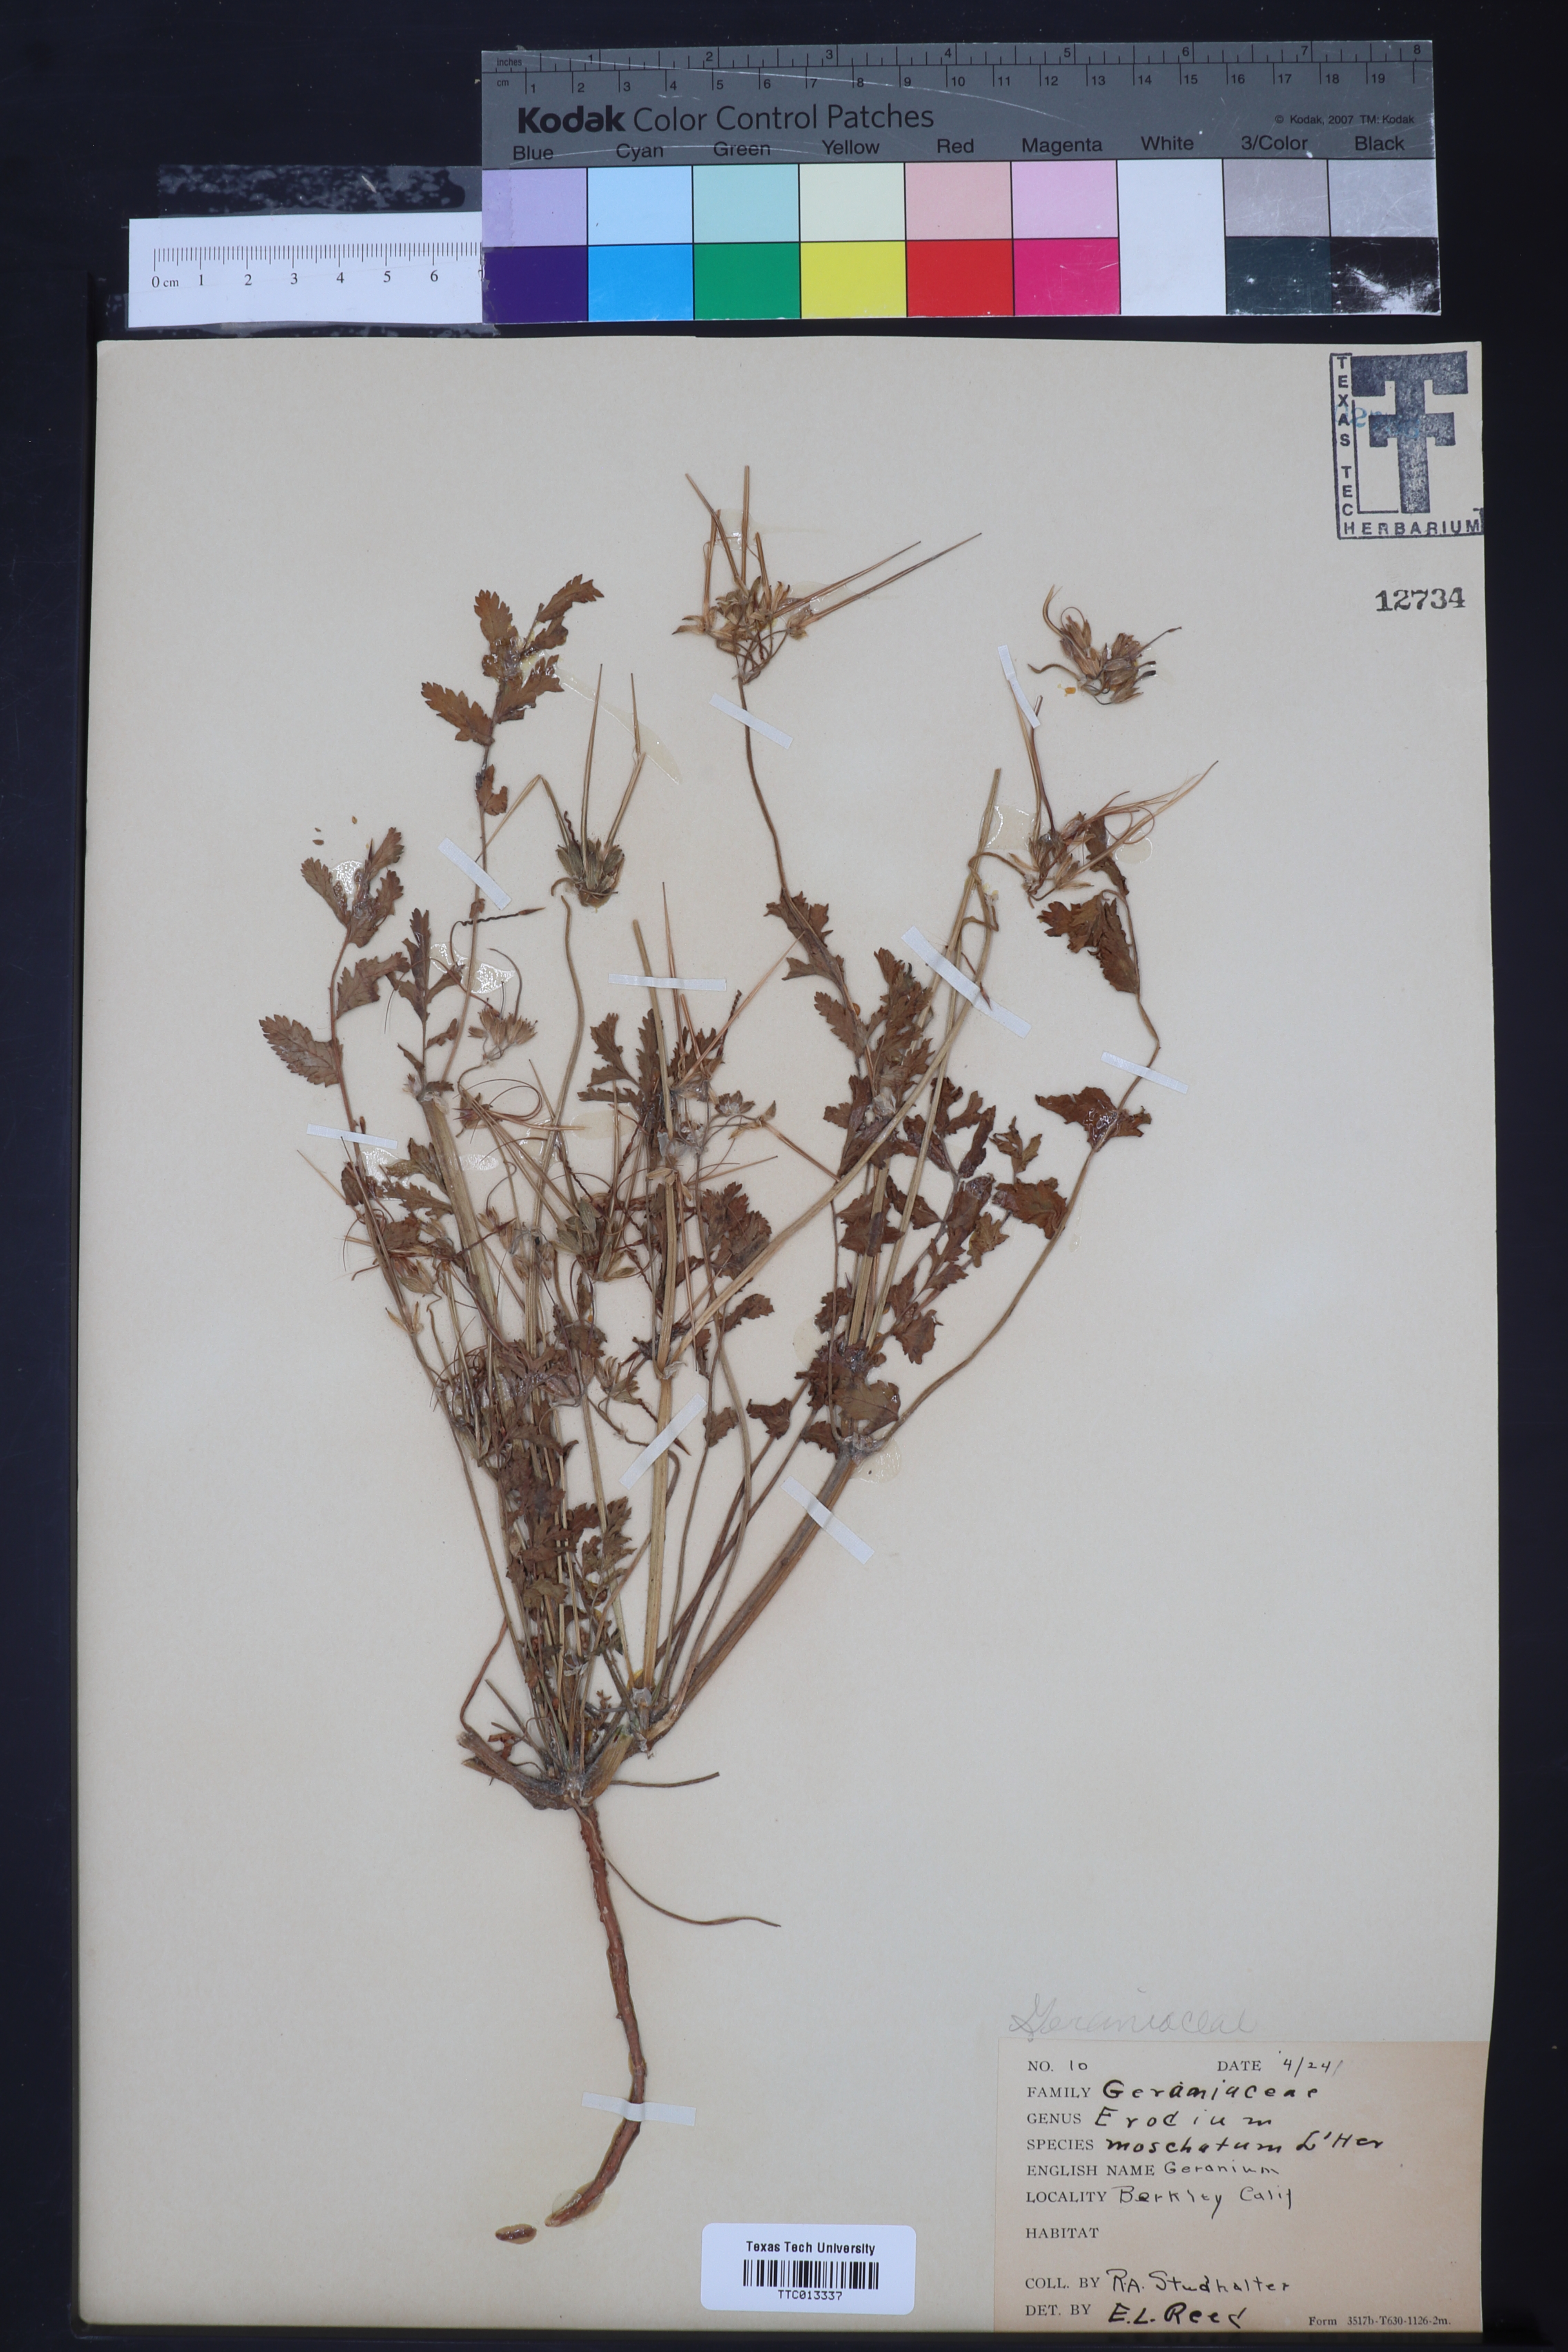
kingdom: Plantae
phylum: Tracheophyta
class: Magnoliopsida
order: Geraniales
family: Geraniaceae
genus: Erodium
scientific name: Erodium moschatum
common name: Musk stork's-bill
